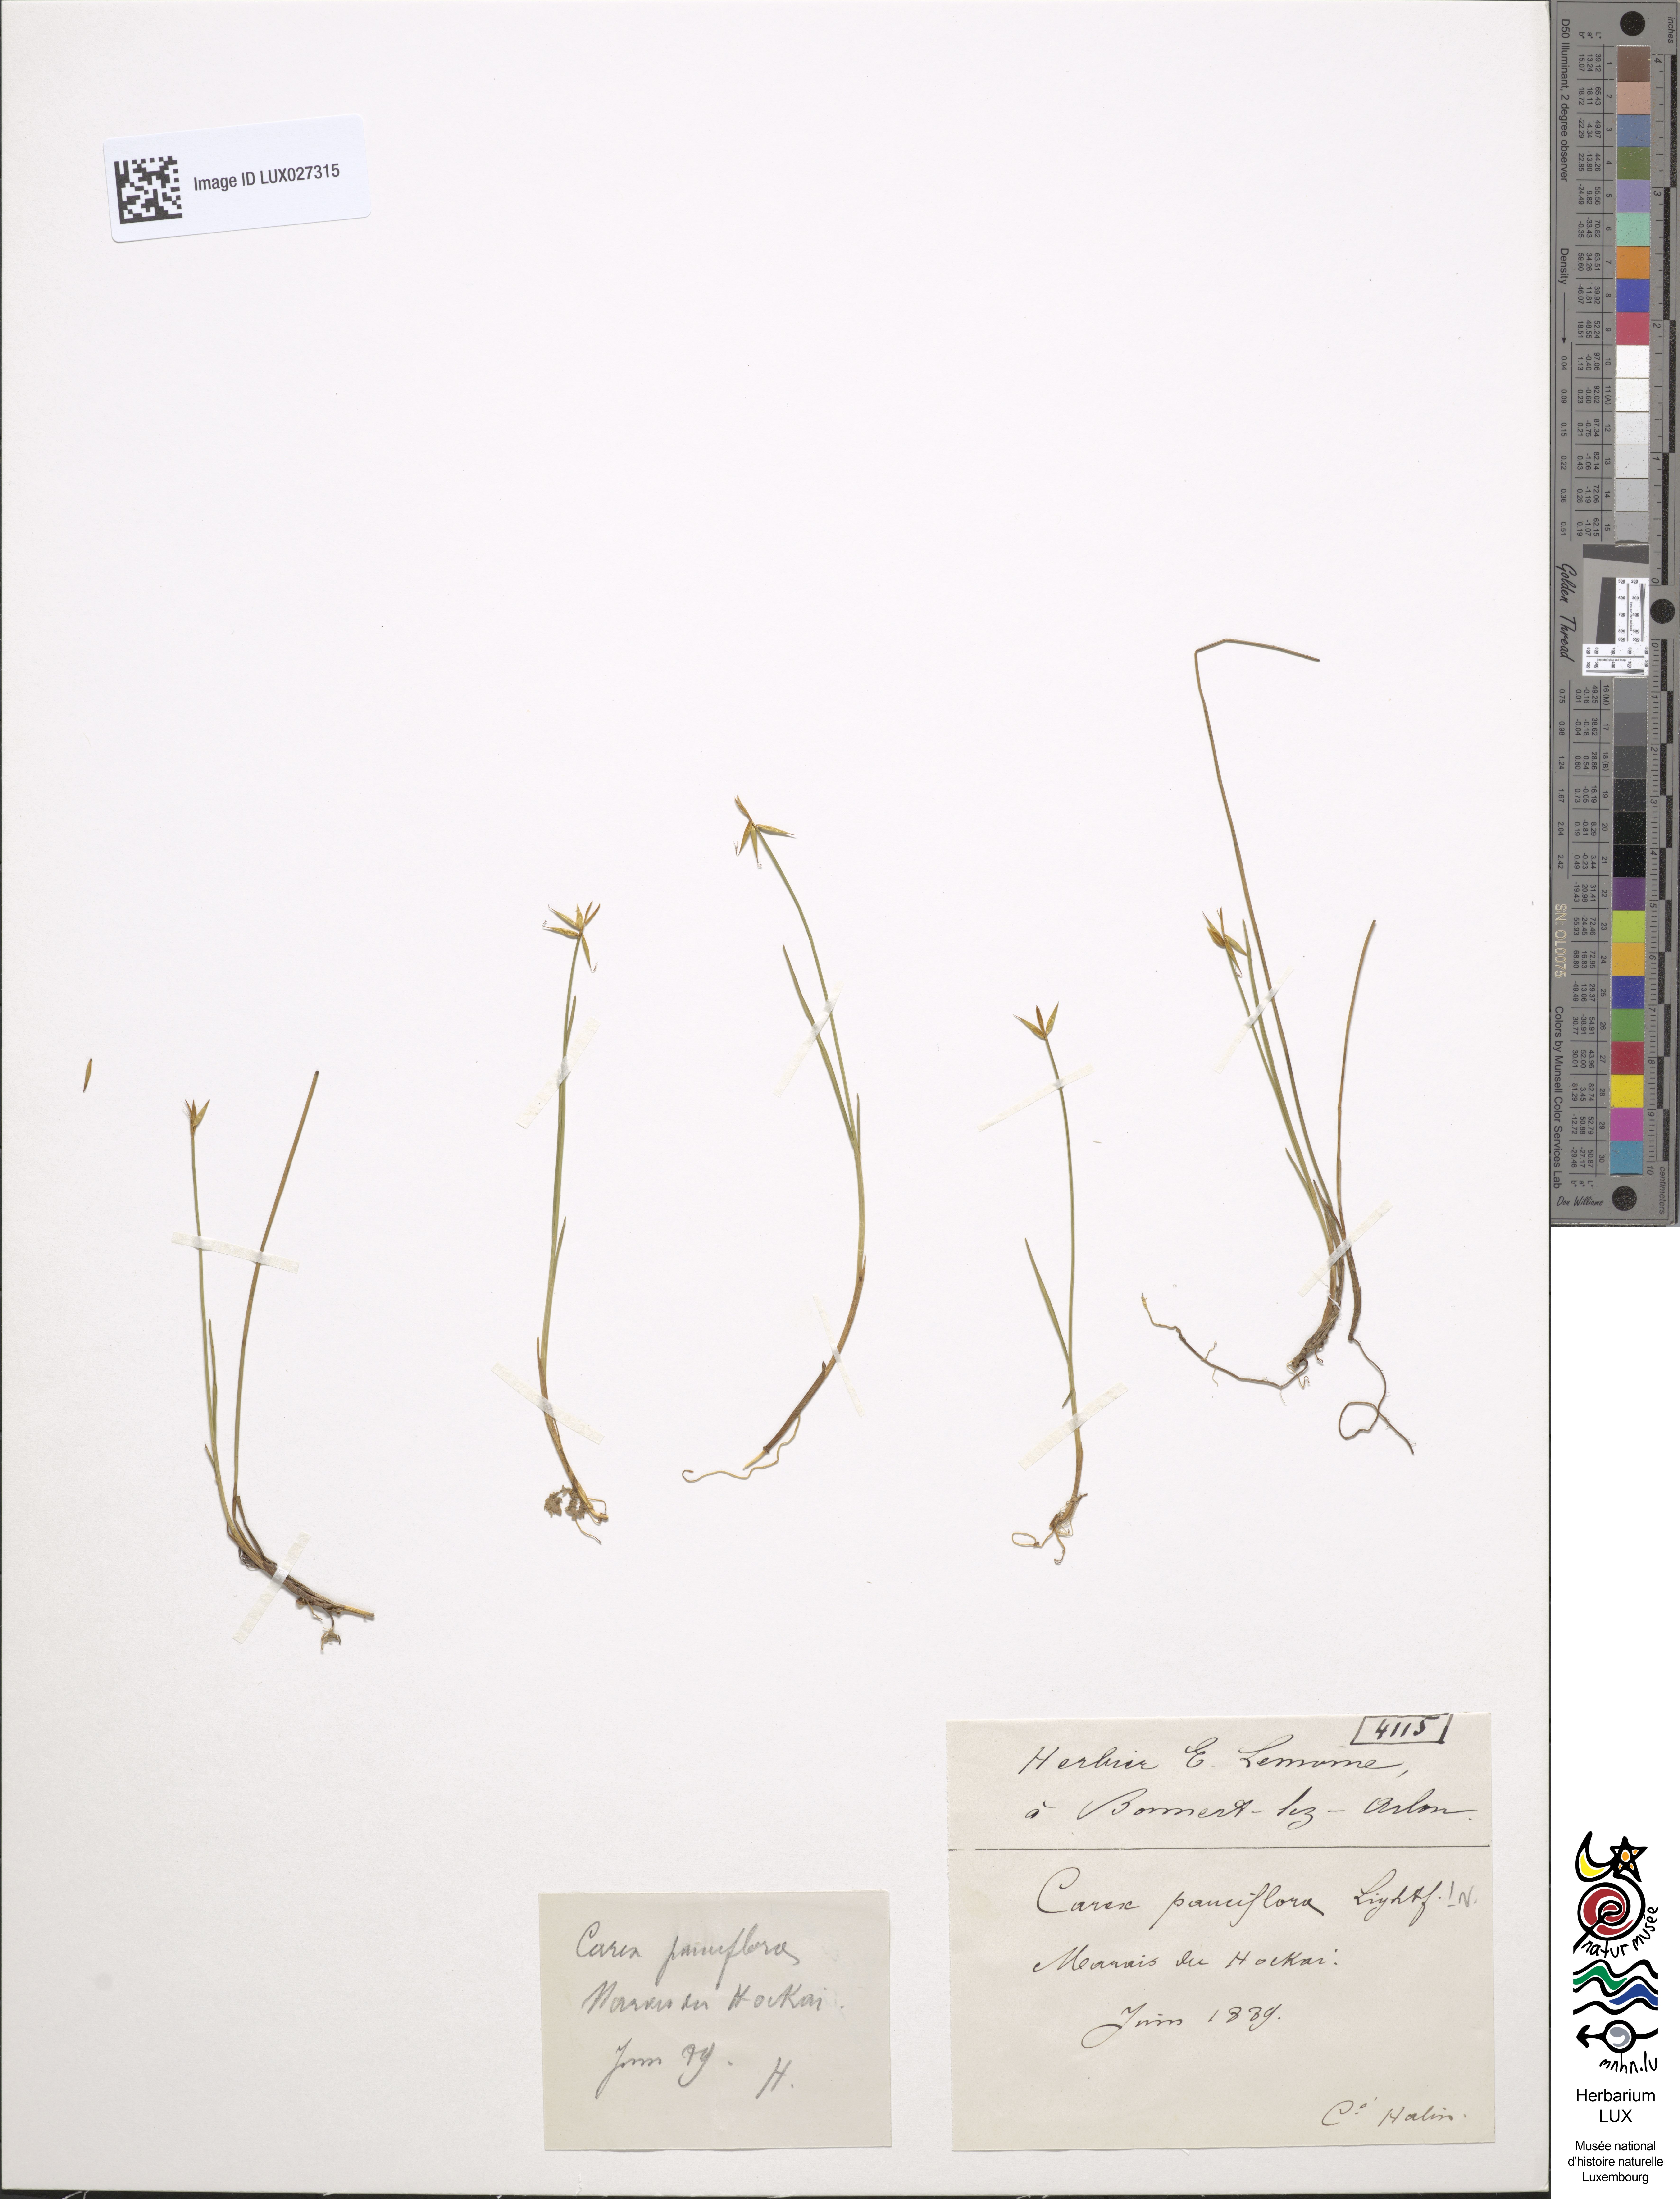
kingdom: Plantae
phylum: Tracheophyta
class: Liliopsida
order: Poales
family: Cyperaceae
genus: Carex
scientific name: Carex pauciflora
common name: Few-flowered sedge
